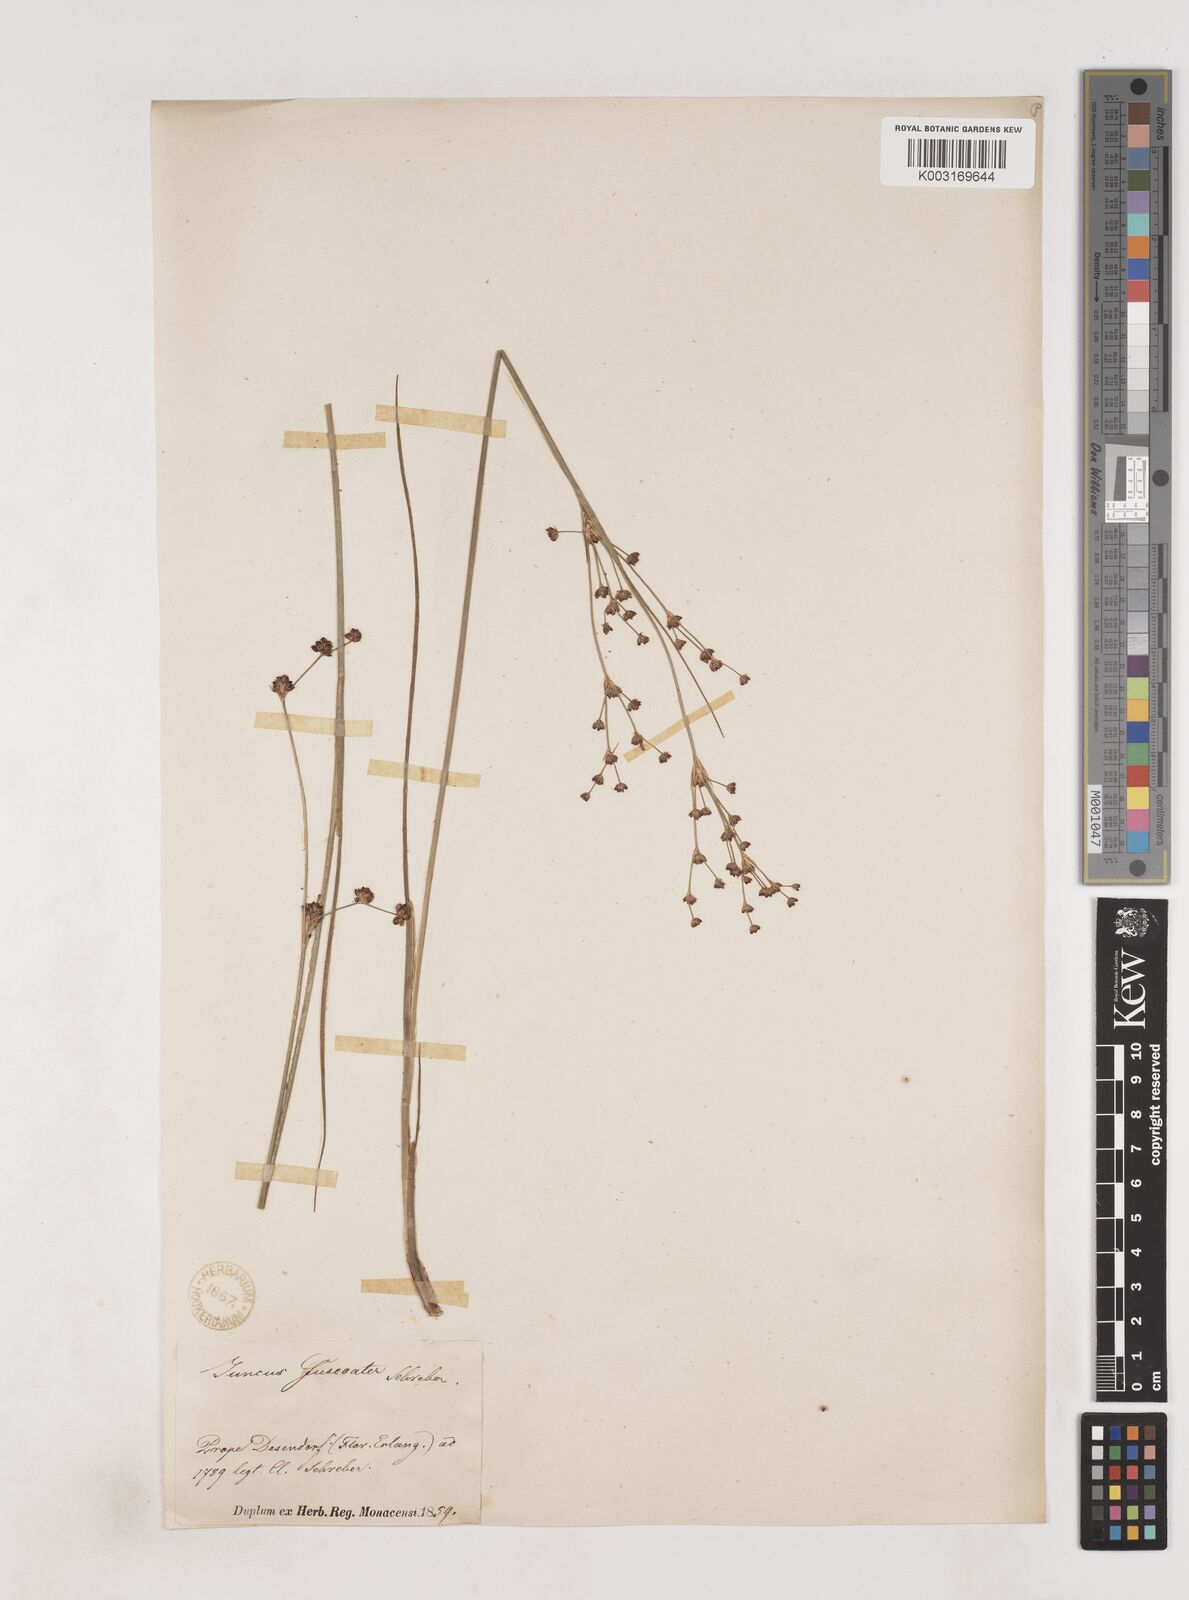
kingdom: Plantae
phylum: Tracheophyta
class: Liliopsida
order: Poales
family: Juncaceae
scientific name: Juncaceae
